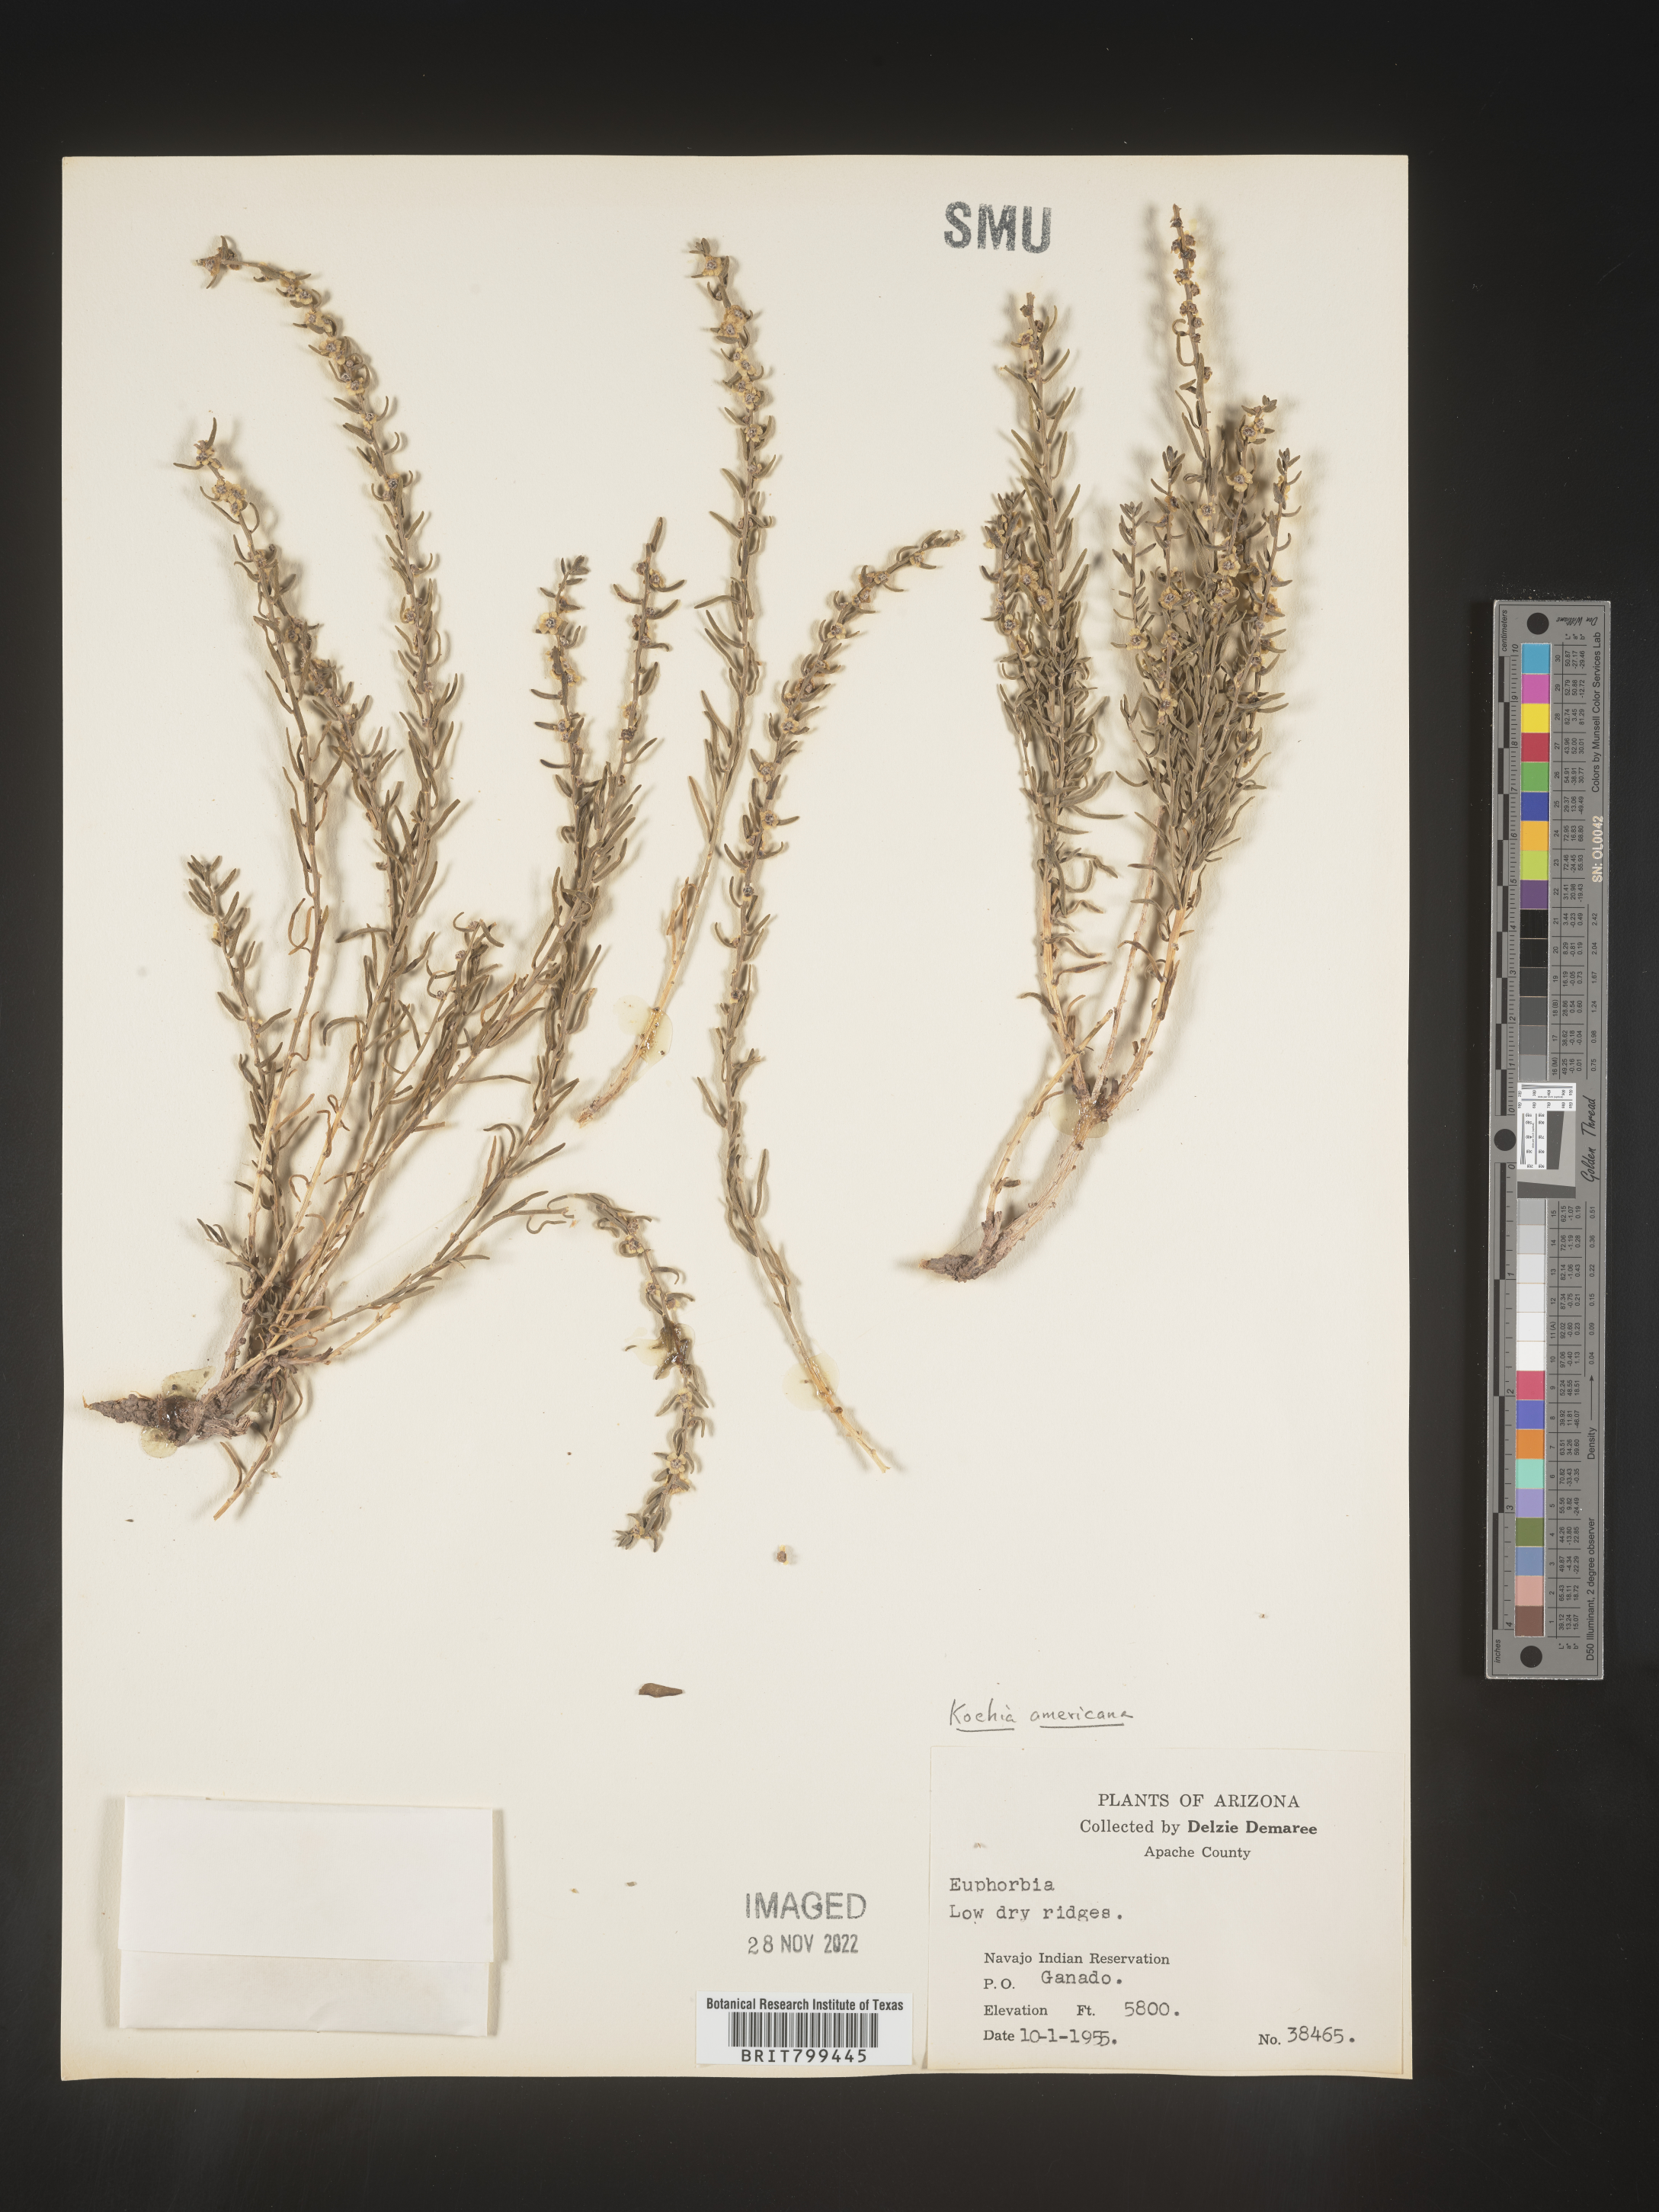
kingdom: Plantae
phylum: Tracheophyta
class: Magnoliopsida
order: Caryophyllales
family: Amaranthaceae
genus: Neokochia
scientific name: Neokochia americana
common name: Perennial summer-cypress
